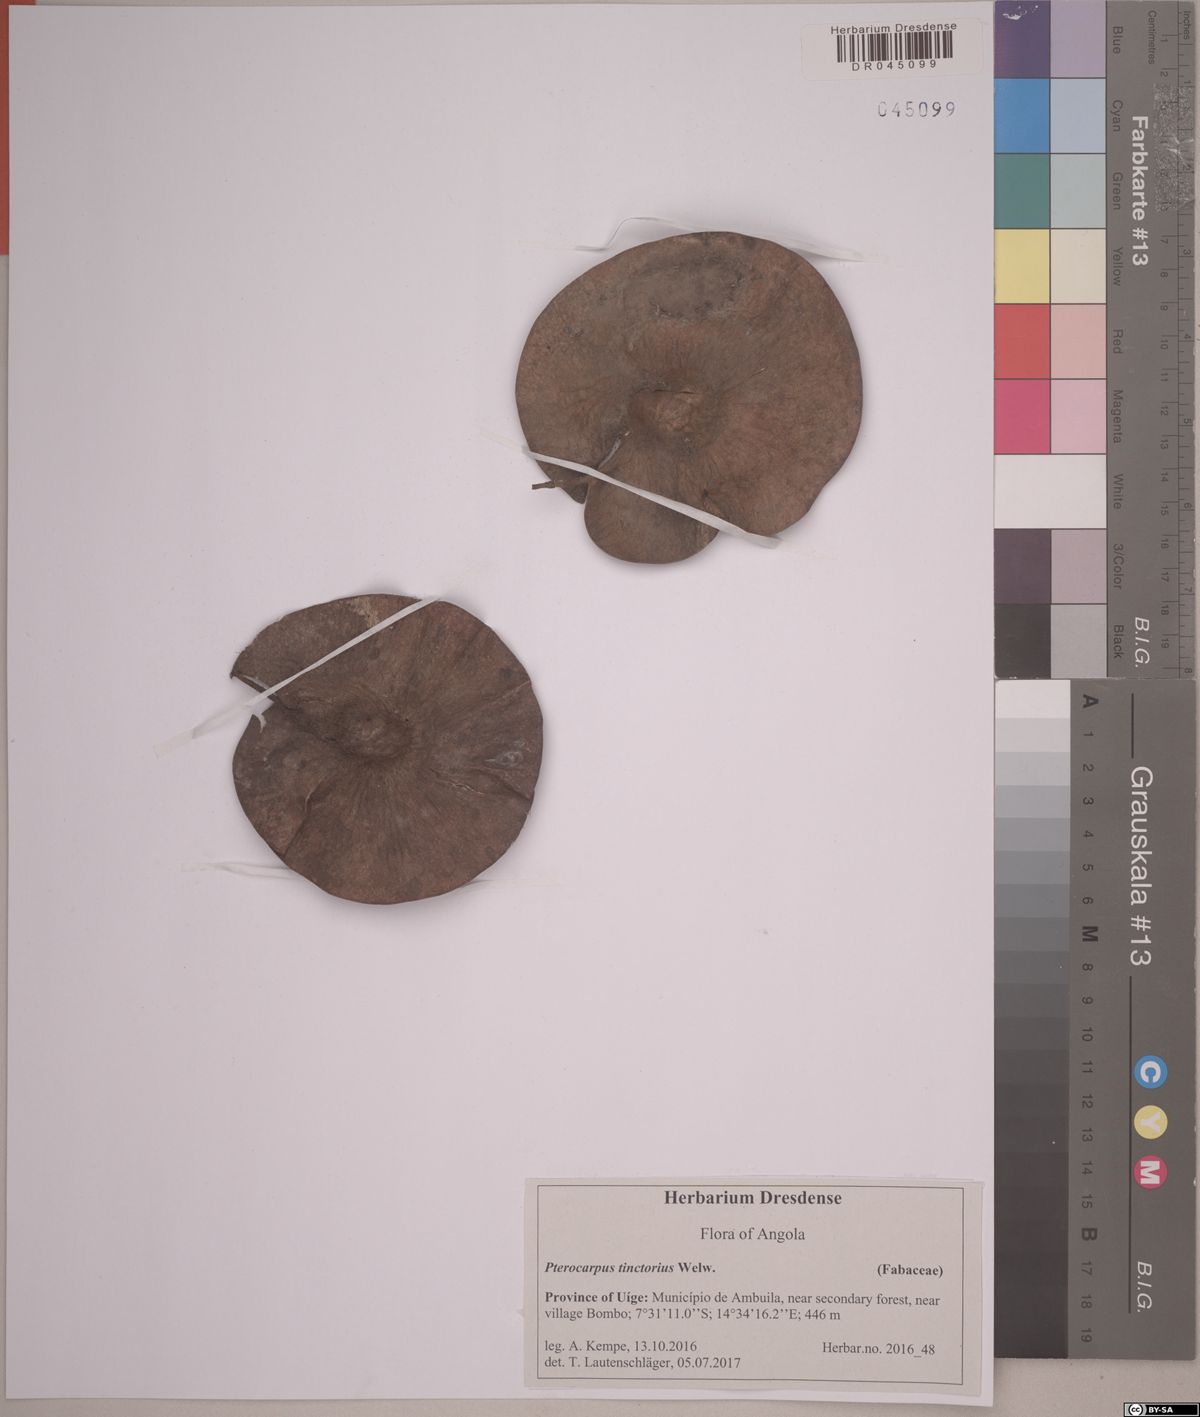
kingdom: Plantae
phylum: Tracheophyta
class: Magnoliopsida
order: Fabales
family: Fabaceae
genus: Pterocarpus
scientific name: Pterocarpus tinctorius
